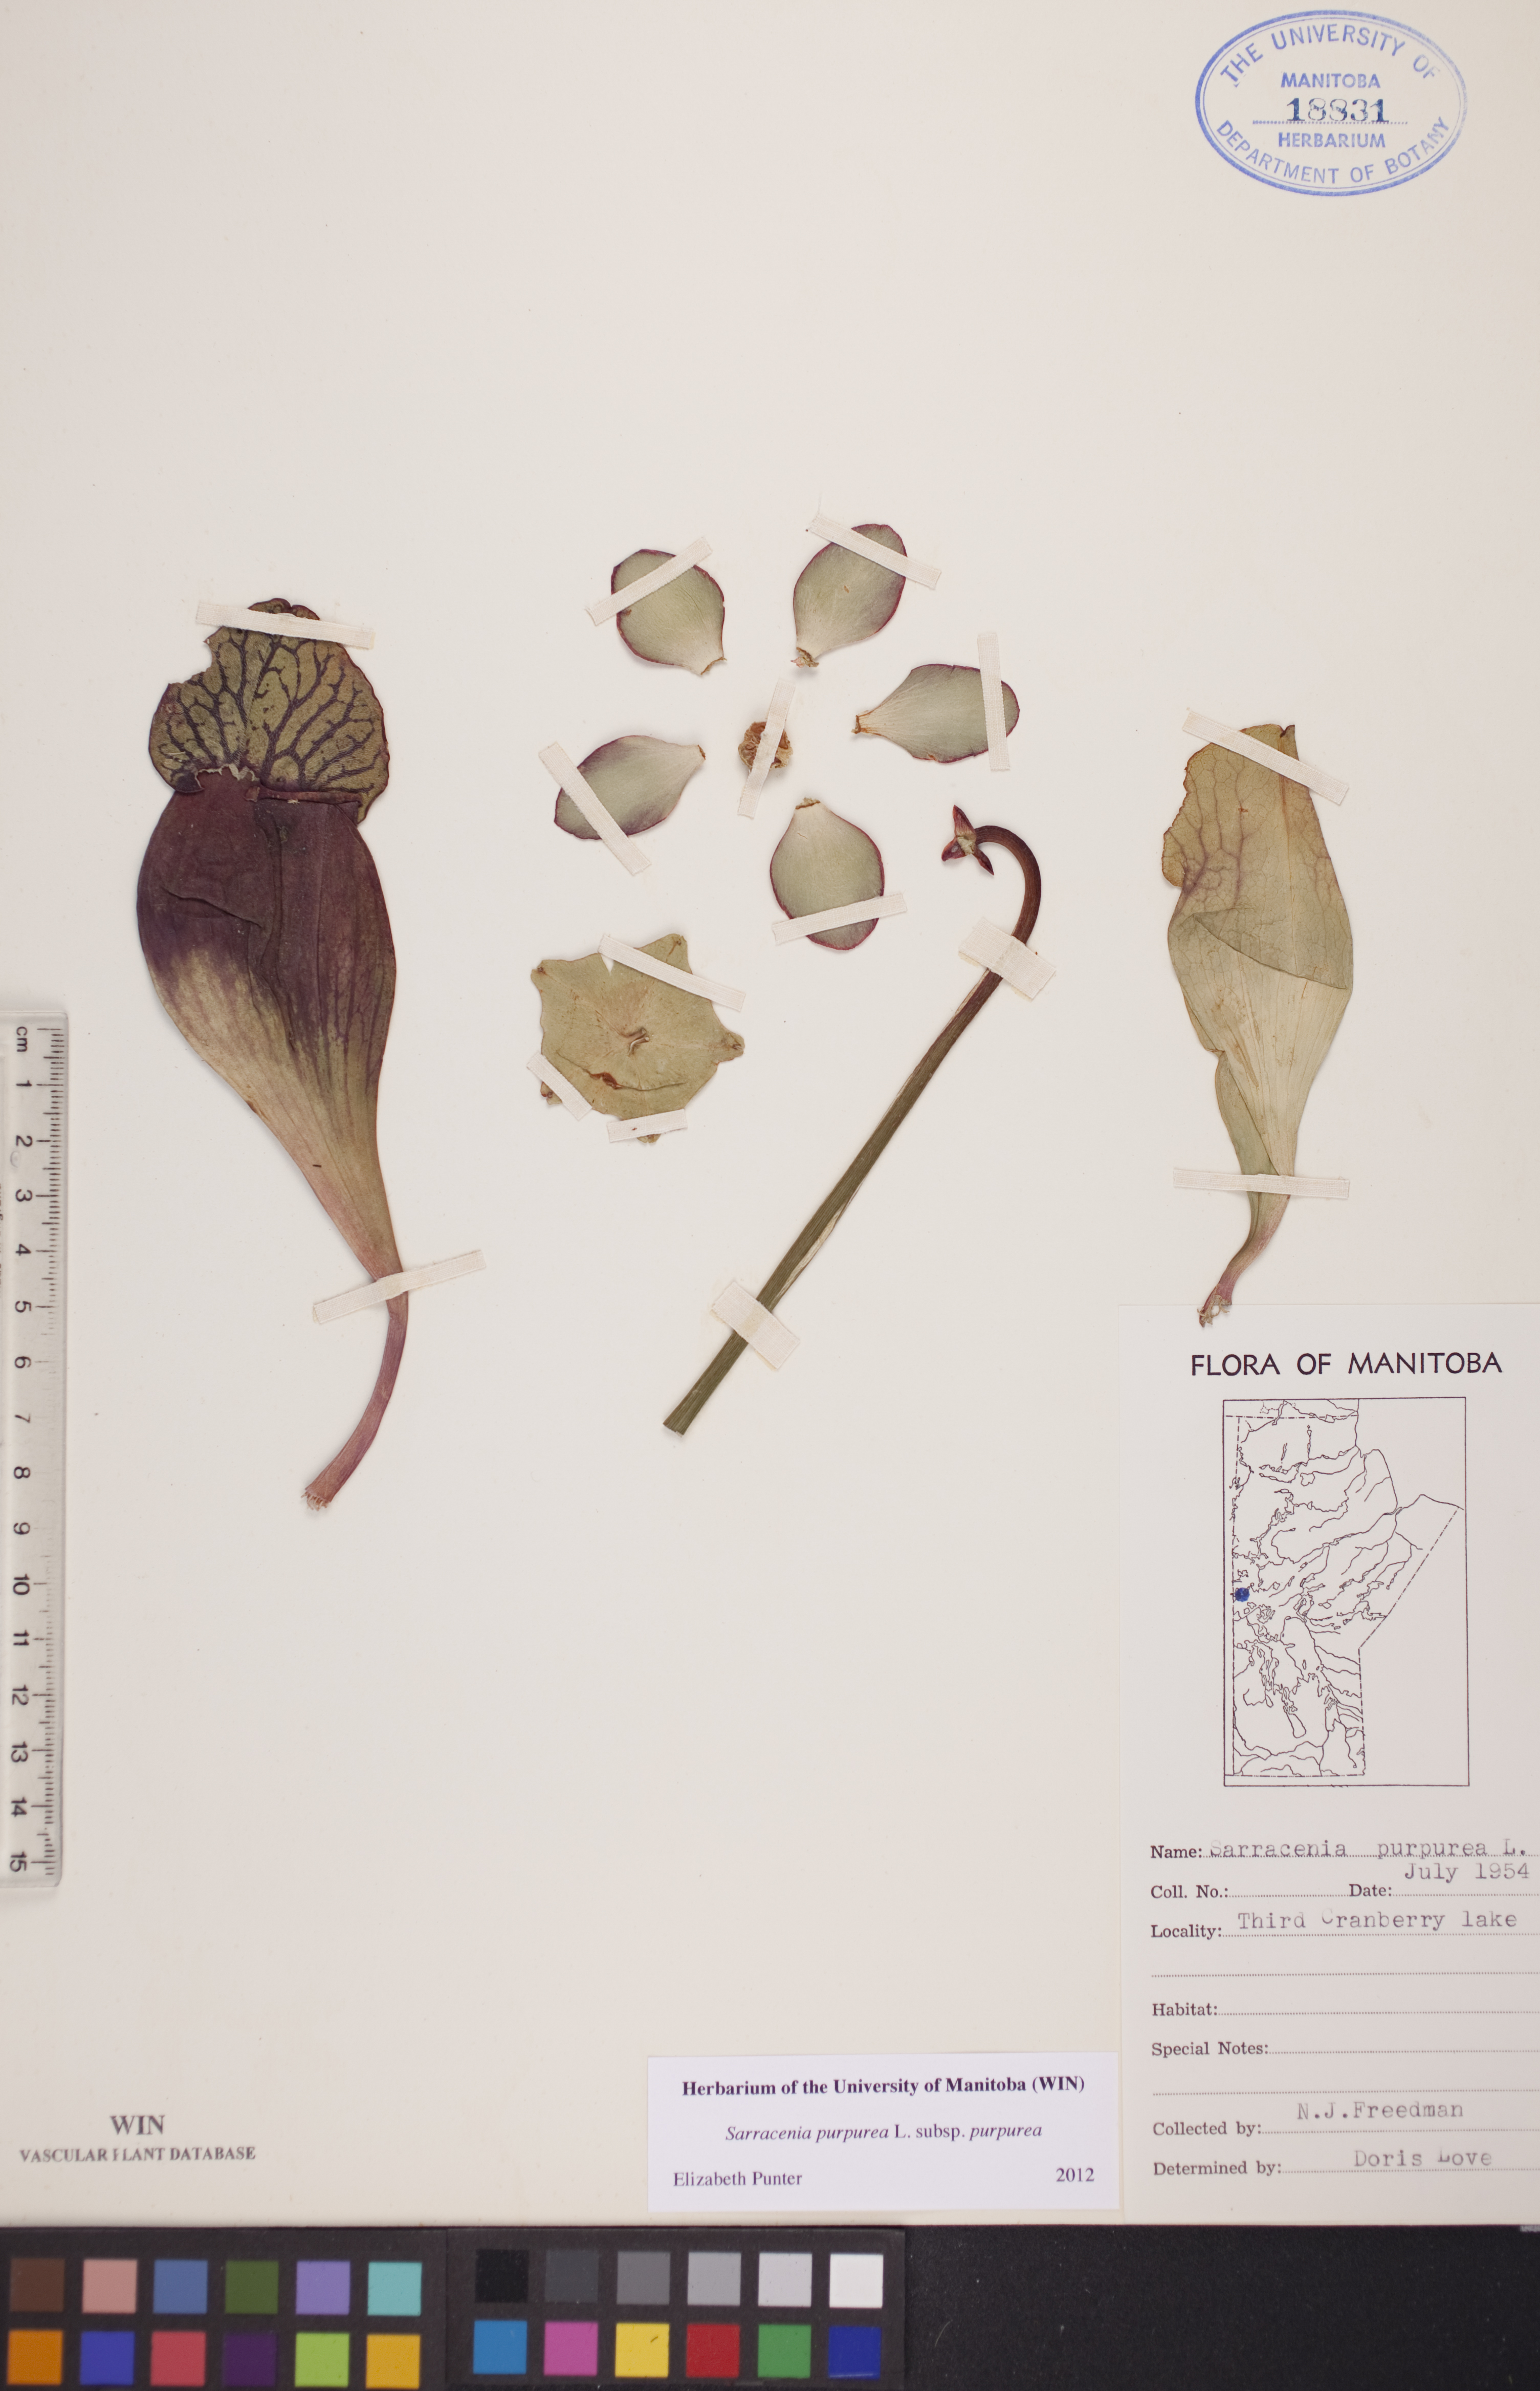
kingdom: Plantae
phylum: Tracheophyta
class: Magnoliopsida
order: Ericales
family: Sarraceniaceae
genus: Sarracenia
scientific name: Sarracenia purpurea
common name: Pitcherplant
